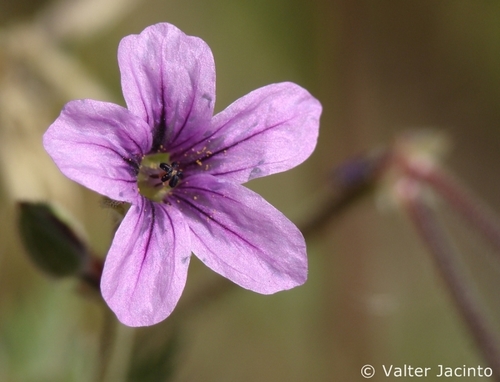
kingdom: Plantae
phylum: Tracheophyta
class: Magnoliopsida
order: Geraniales
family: Geraniaceae
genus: Erodium
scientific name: Erodium botrys
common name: Mediterranean stork's-bill
